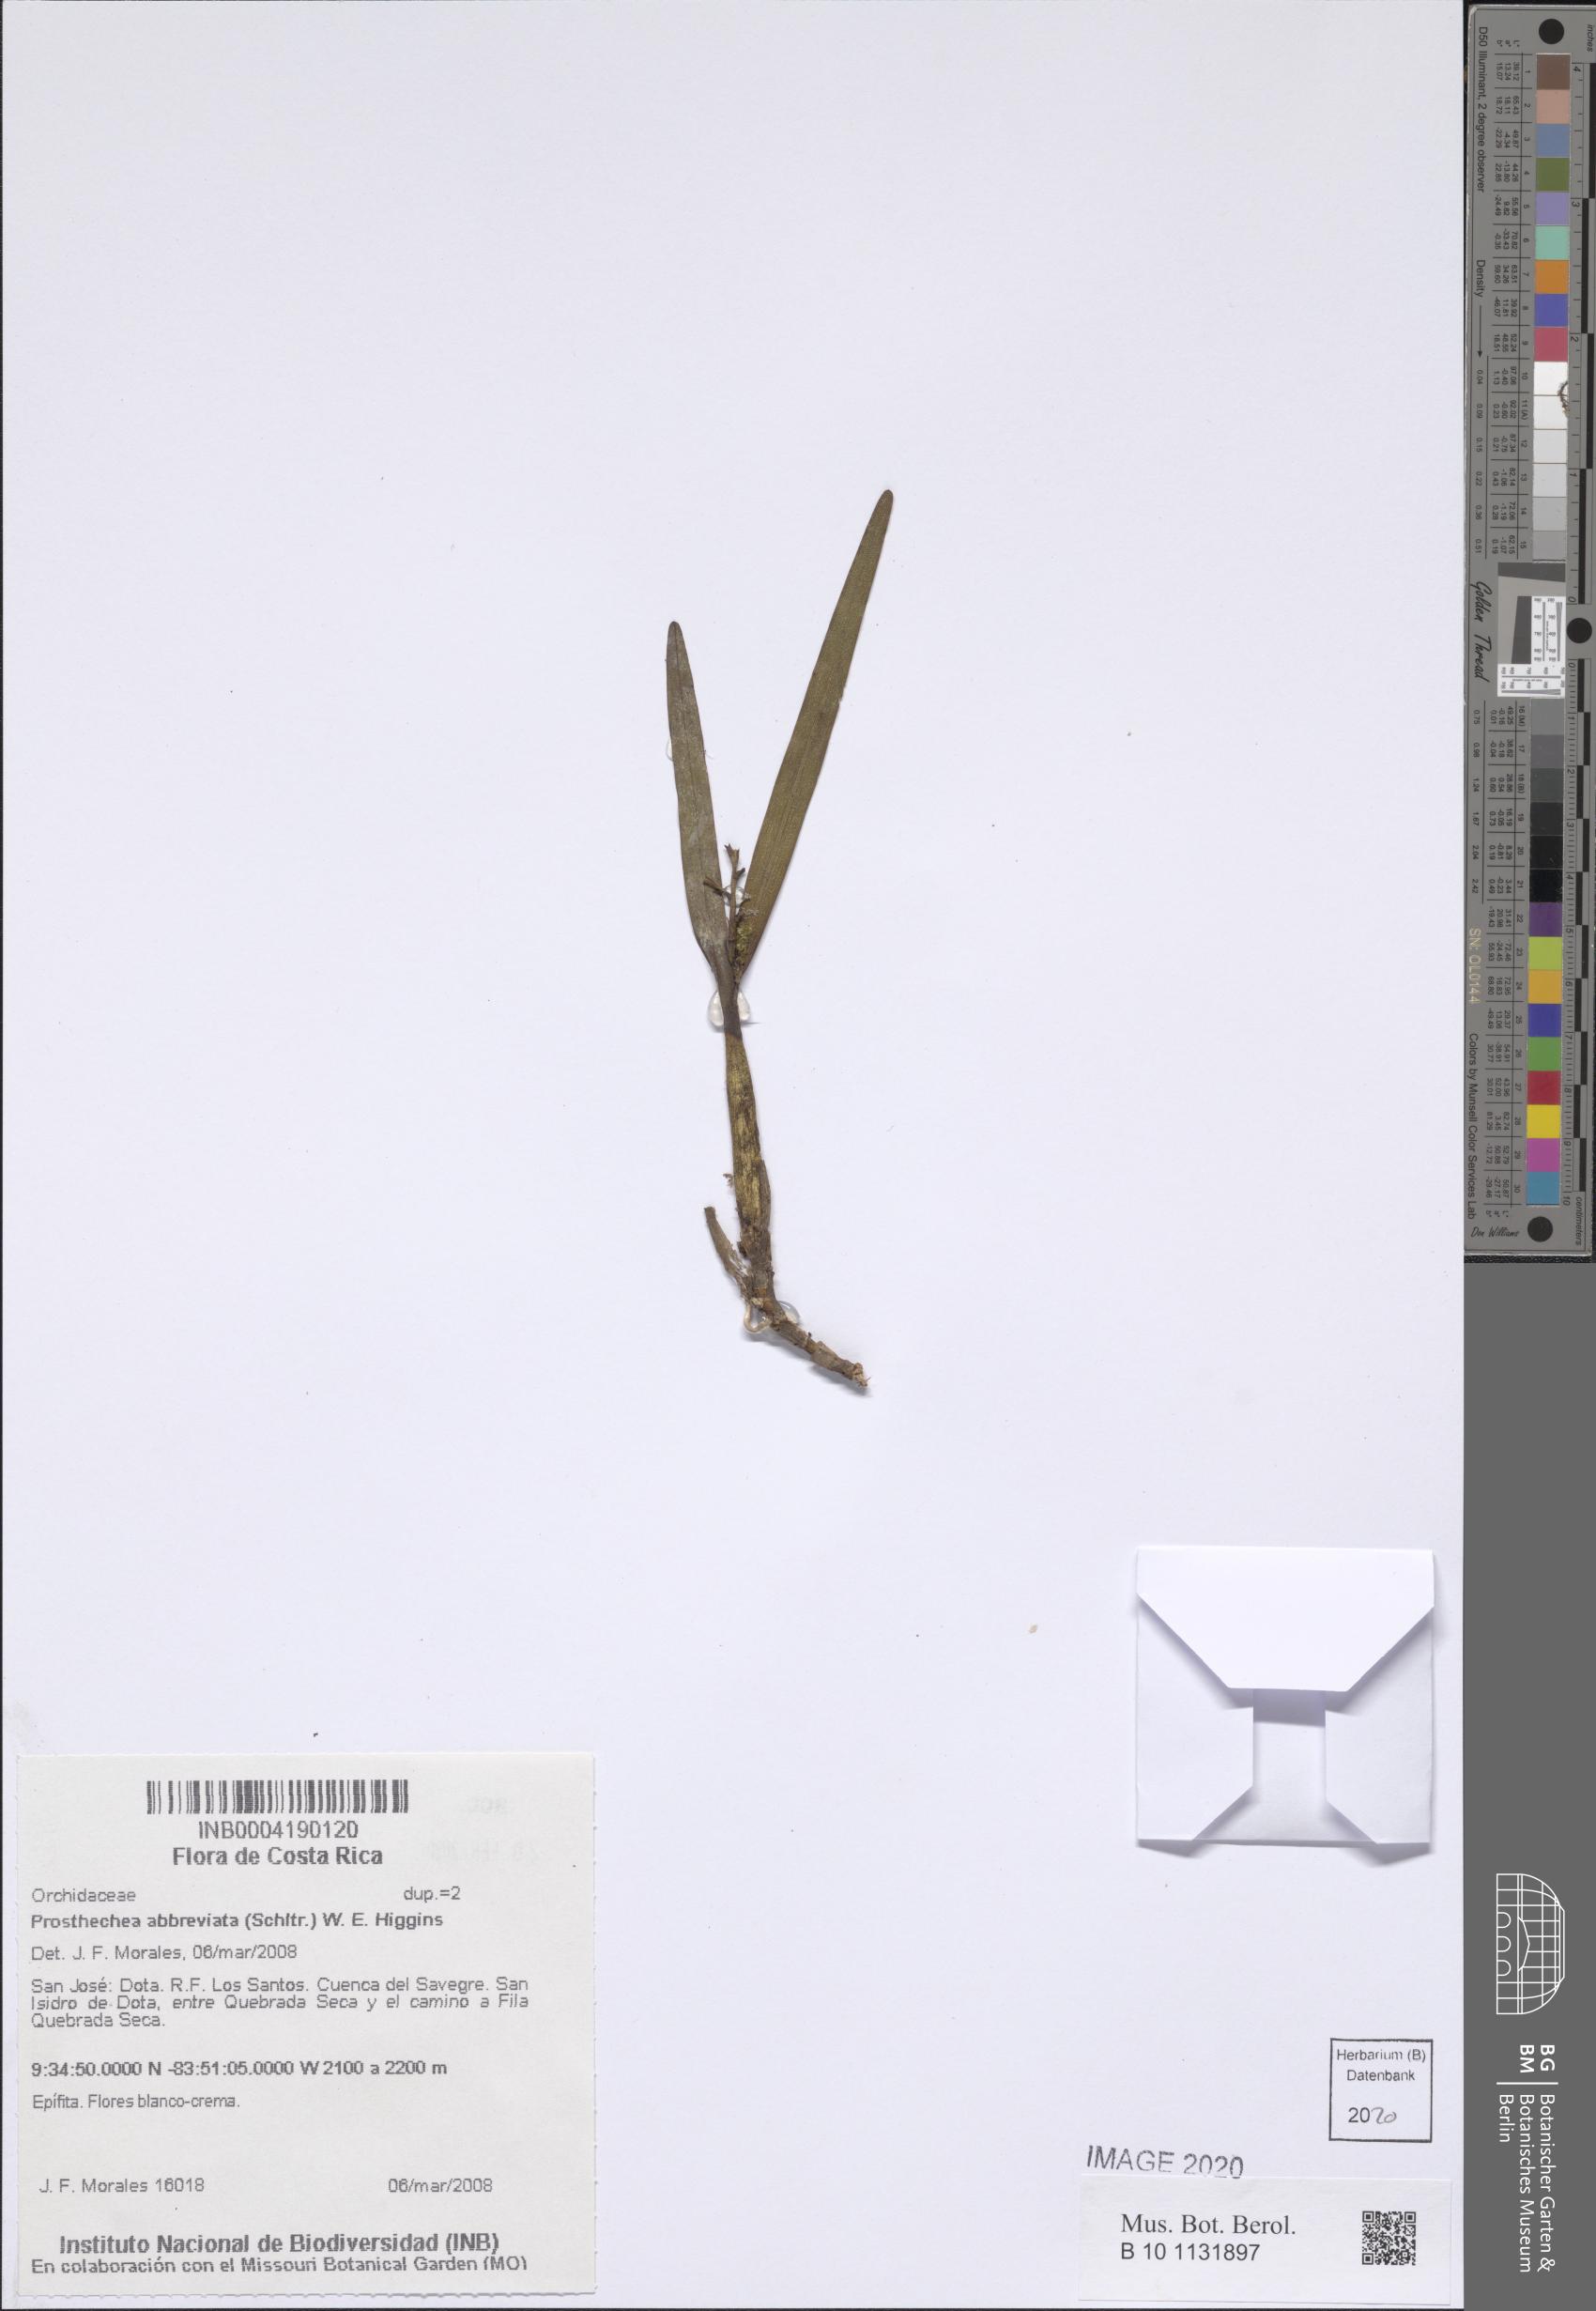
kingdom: Plantae
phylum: Tracheophyta
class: Liliopsida
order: Asparagales
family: Orchidaceae
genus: Prosthechea
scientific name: Prosthechea abbreviata
